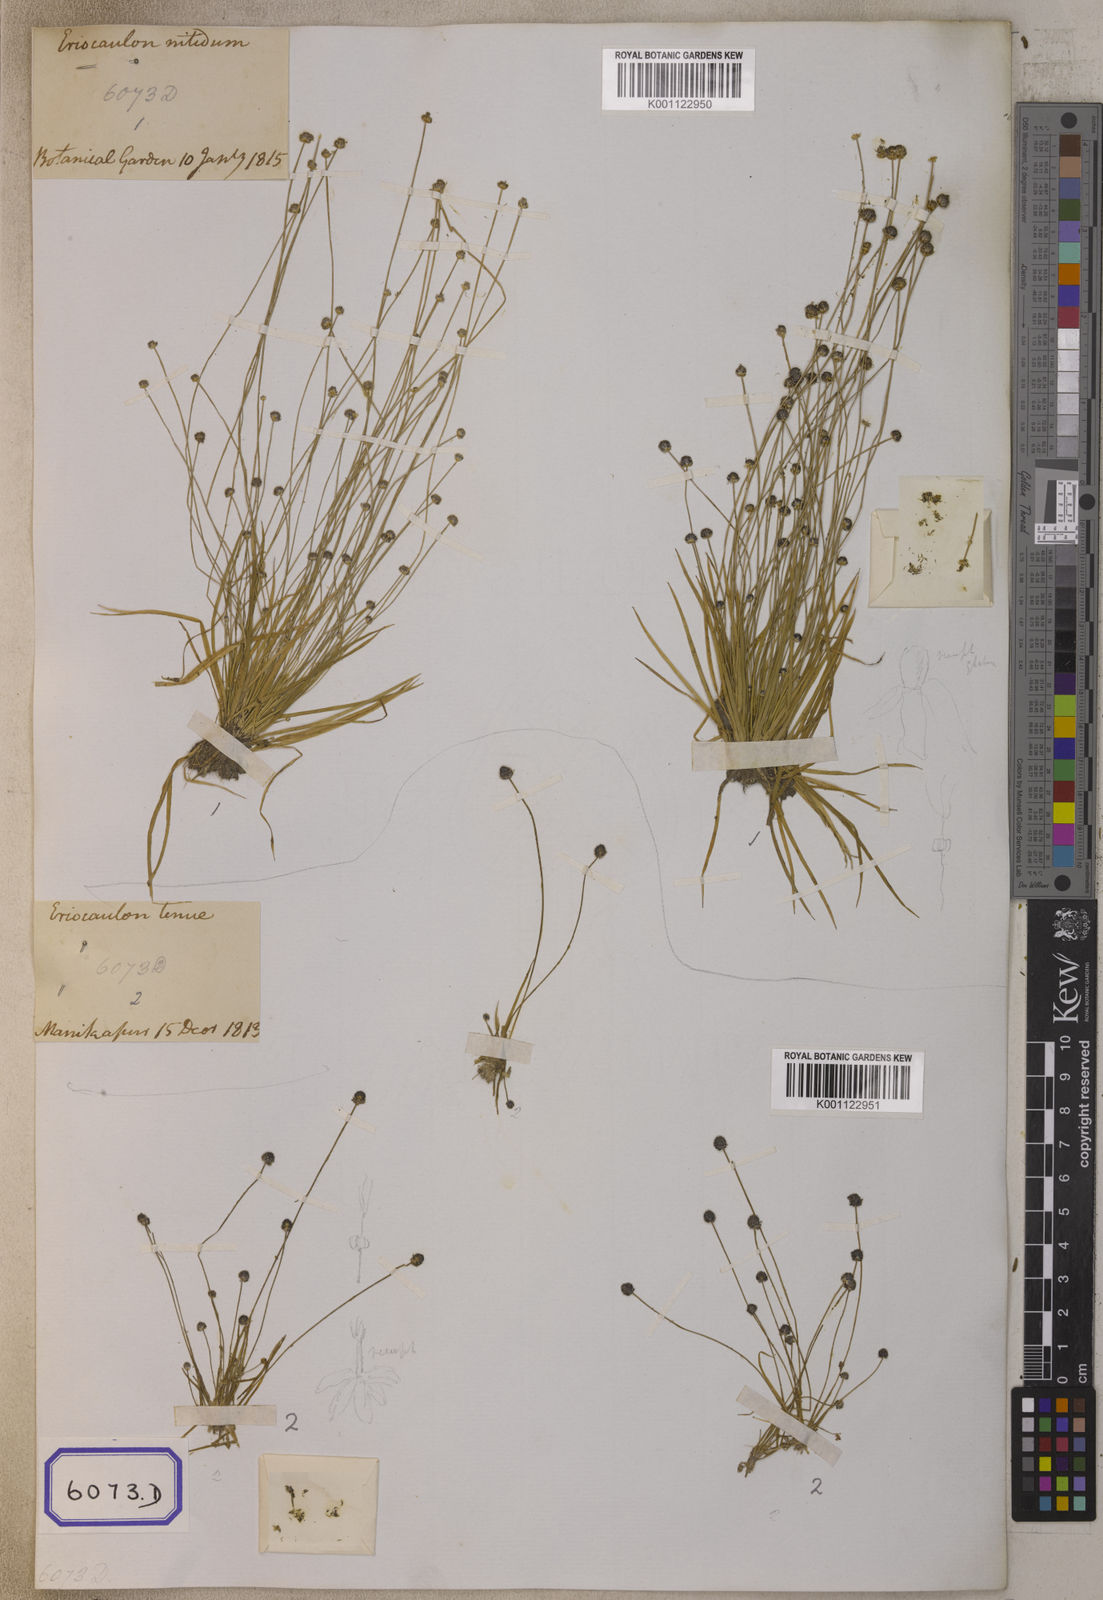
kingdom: Plantae
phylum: Tracheophyta
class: Liliopsida
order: Poales
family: Eriocaulaceae
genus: Eriocaulon
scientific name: Eriocaulon
